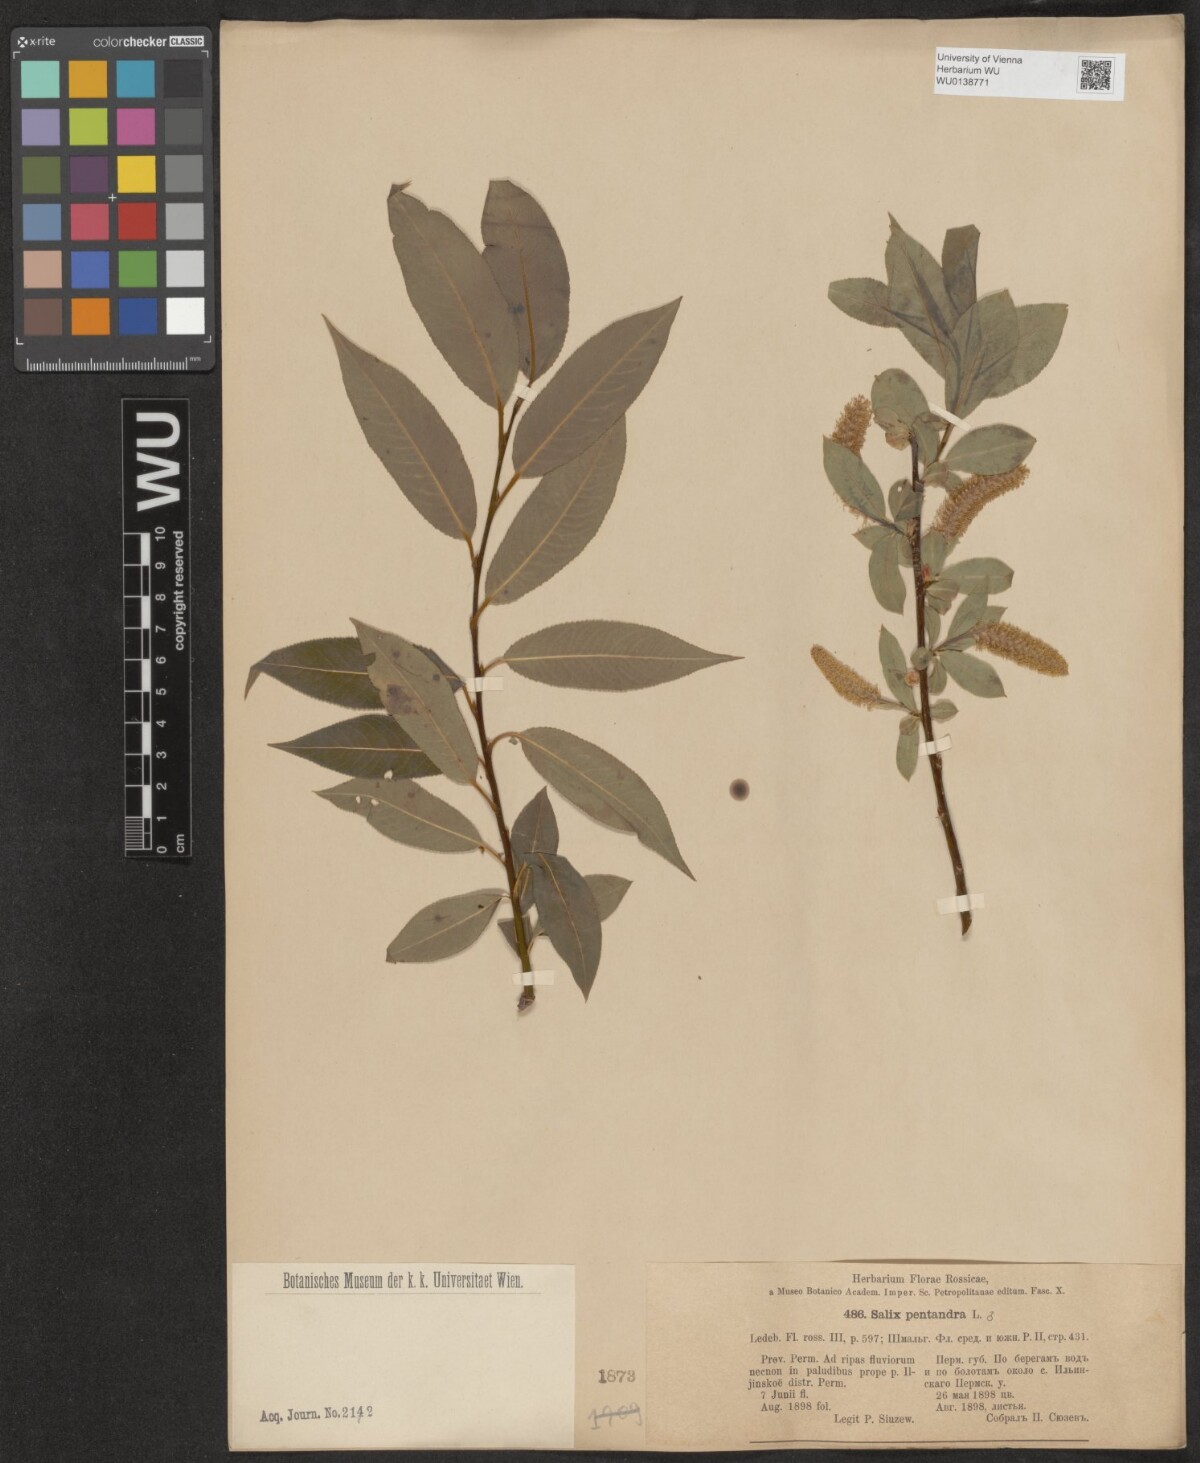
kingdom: Plantae
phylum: Tracheophyta
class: Magnoliopsida
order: Malpighiales
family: Salicaceae
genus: Salix
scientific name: Salix pentandra
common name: Bay willow
